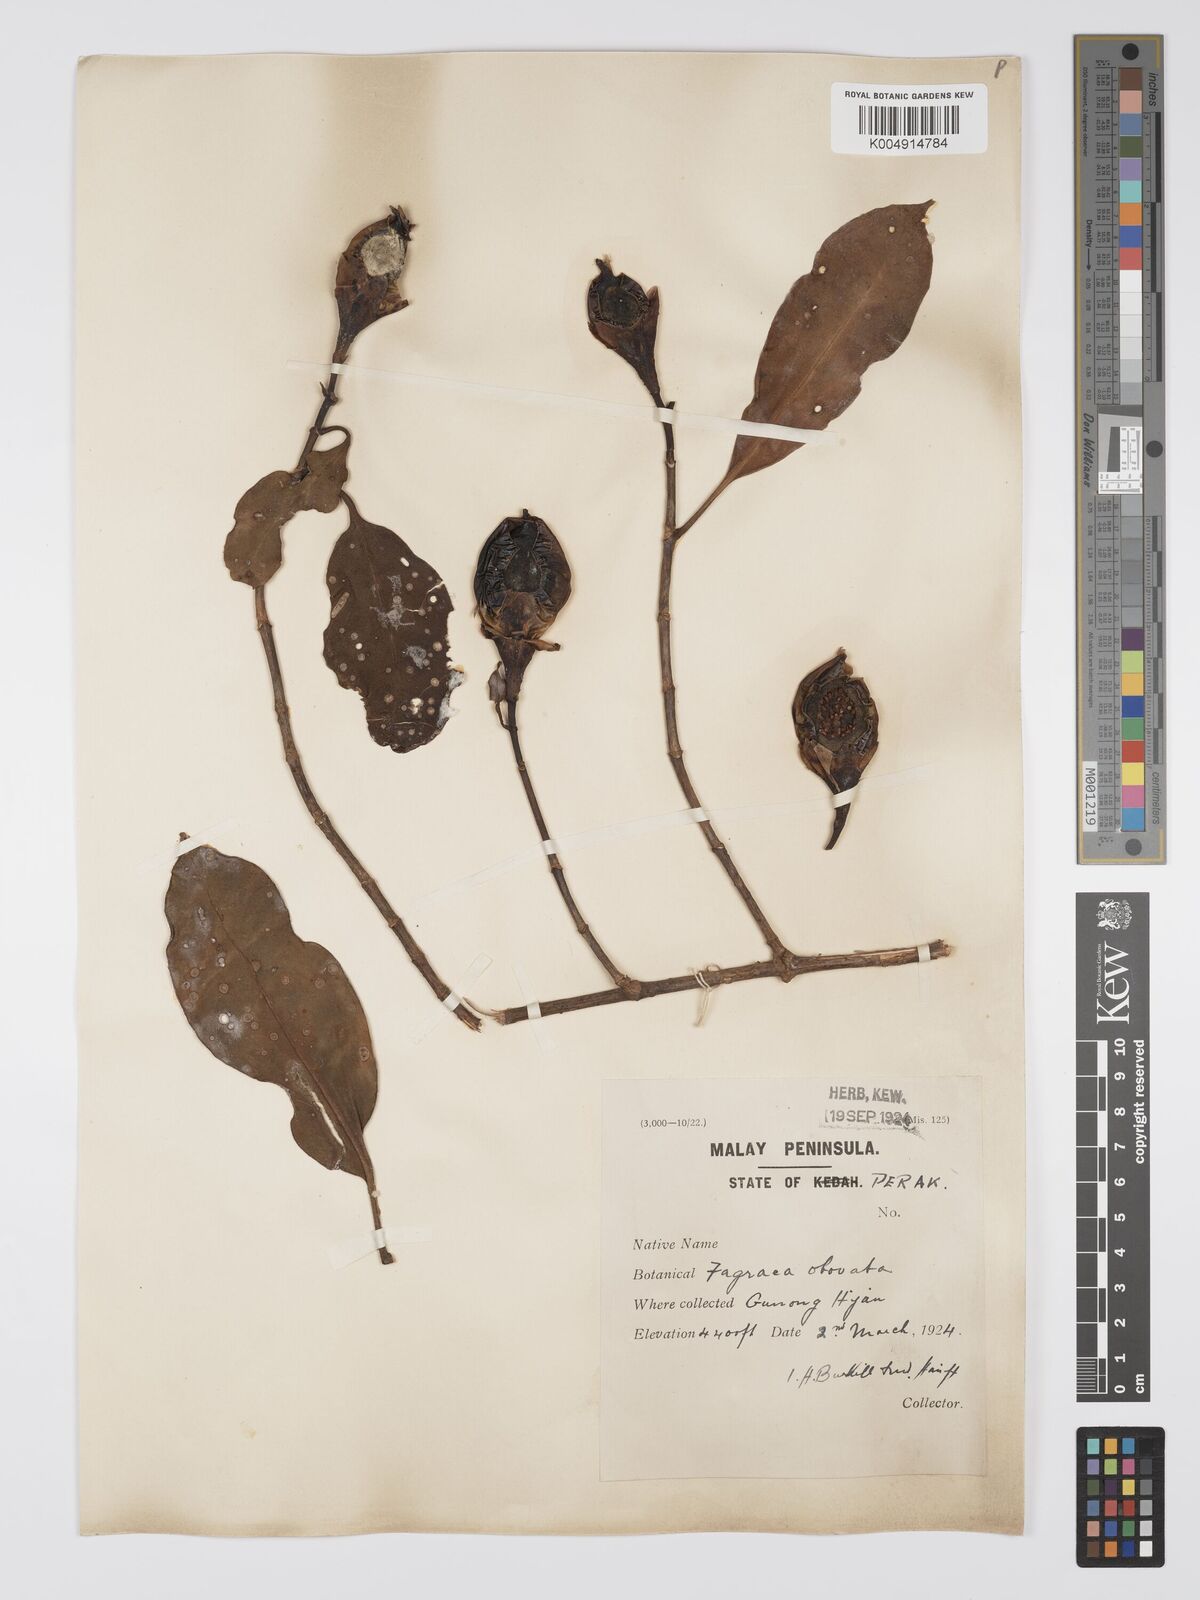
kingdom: Plantae
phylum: Tracheophyta
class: Magnoliopsida
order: Gentianales
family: Gentianaceae
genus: Fagraea
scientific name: Fagraea oblonga
